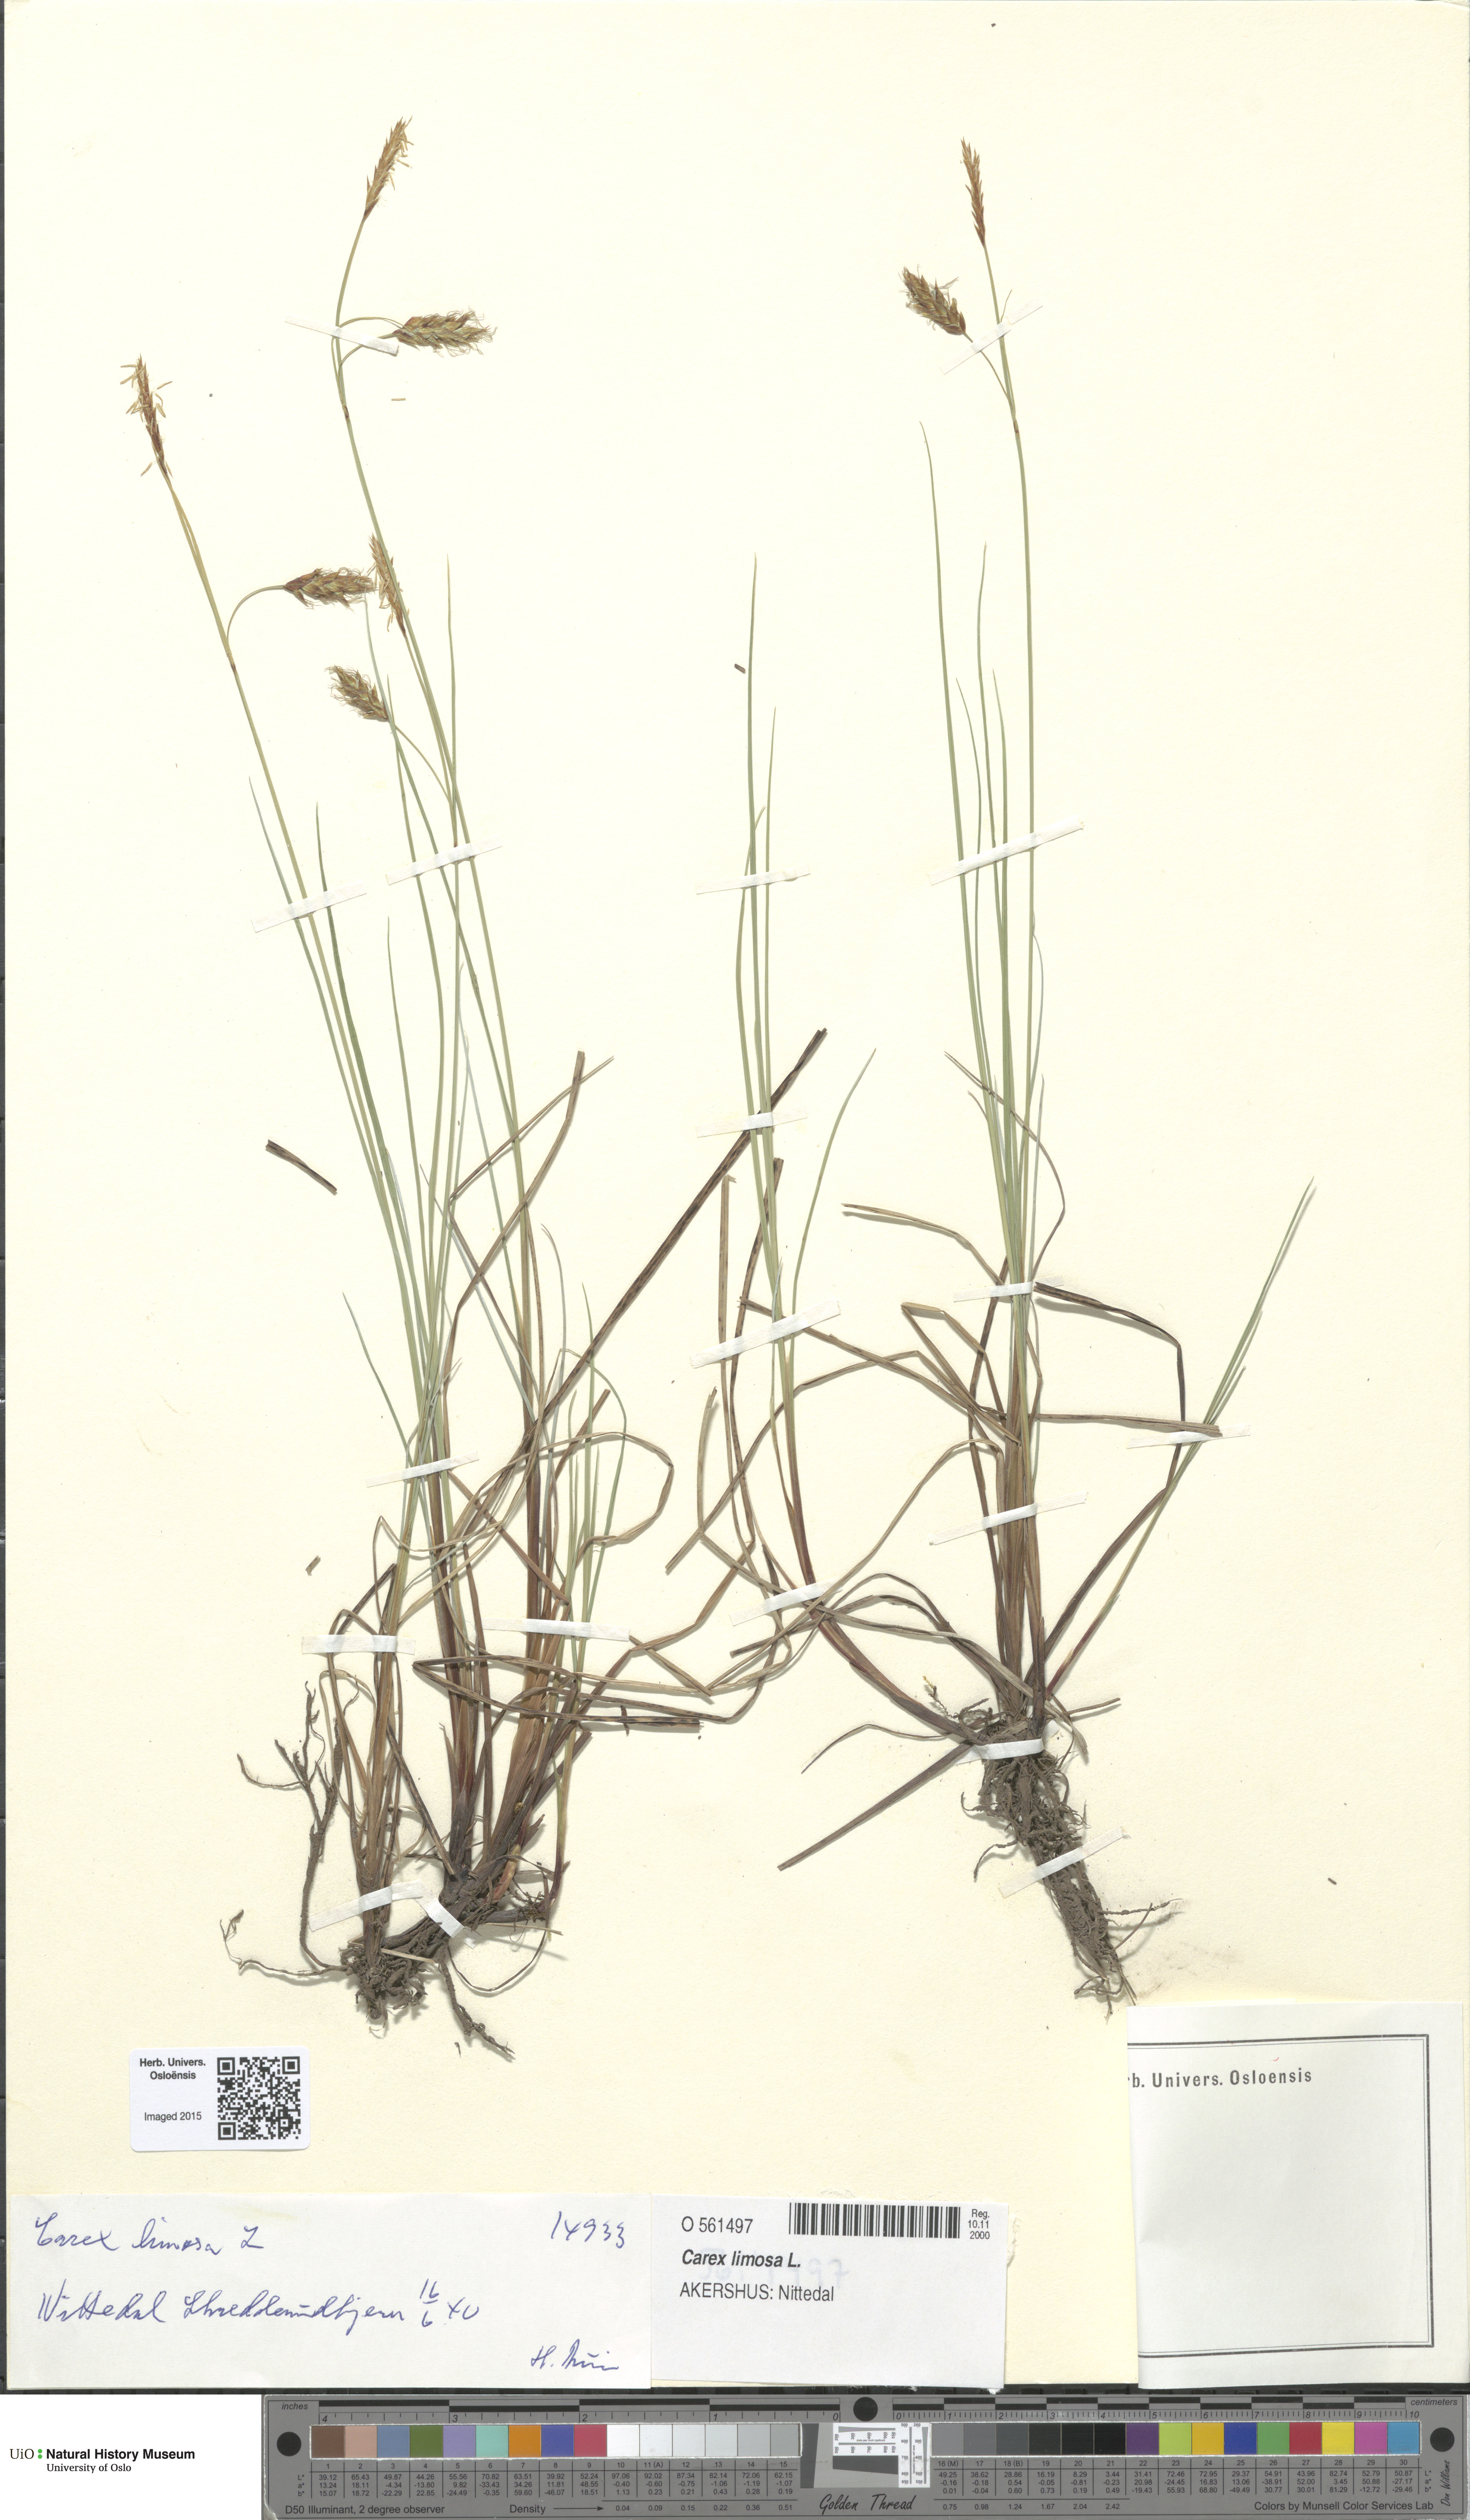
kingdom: Plantae
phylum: Tracheophyta
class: Liliopsida
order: Poales
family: Cyperaceae
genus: Carex
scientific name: Carex limosa
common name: Bog sedge
